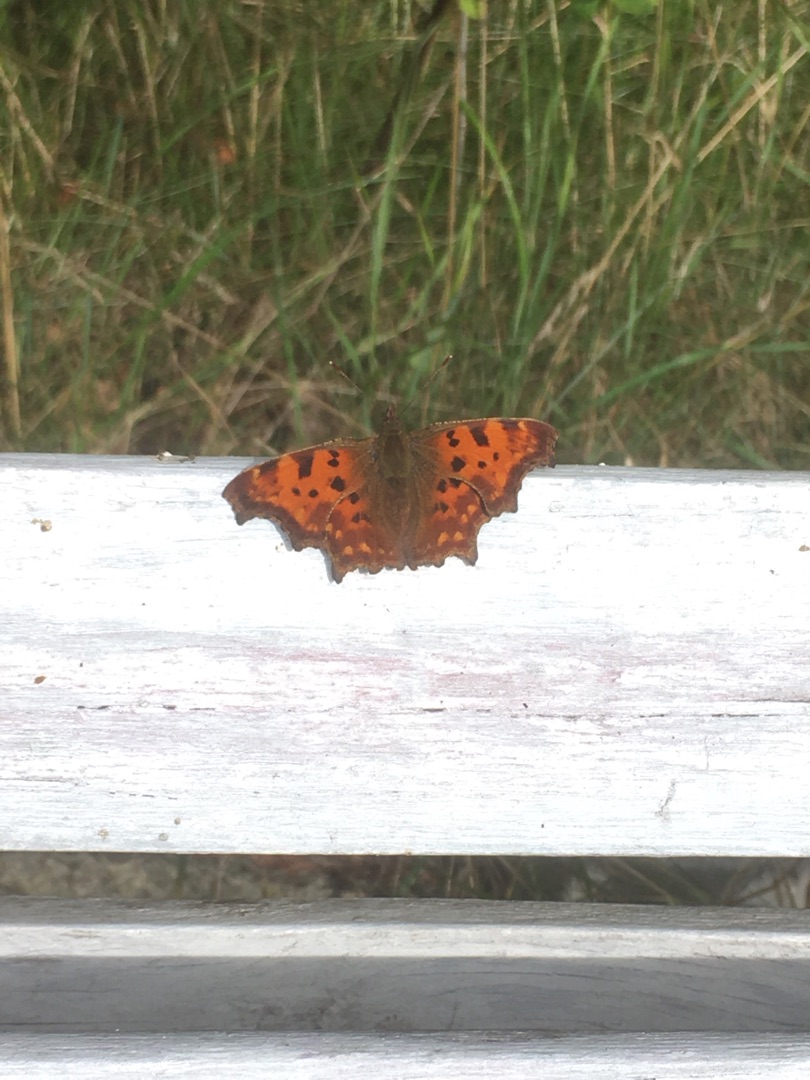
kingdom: Animalia
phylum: Arthropoda
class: Insecta
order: Lepidoptera
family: Nymphalidae
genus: Polygonia
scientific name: Polygonia c-album
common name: Det hvide C
